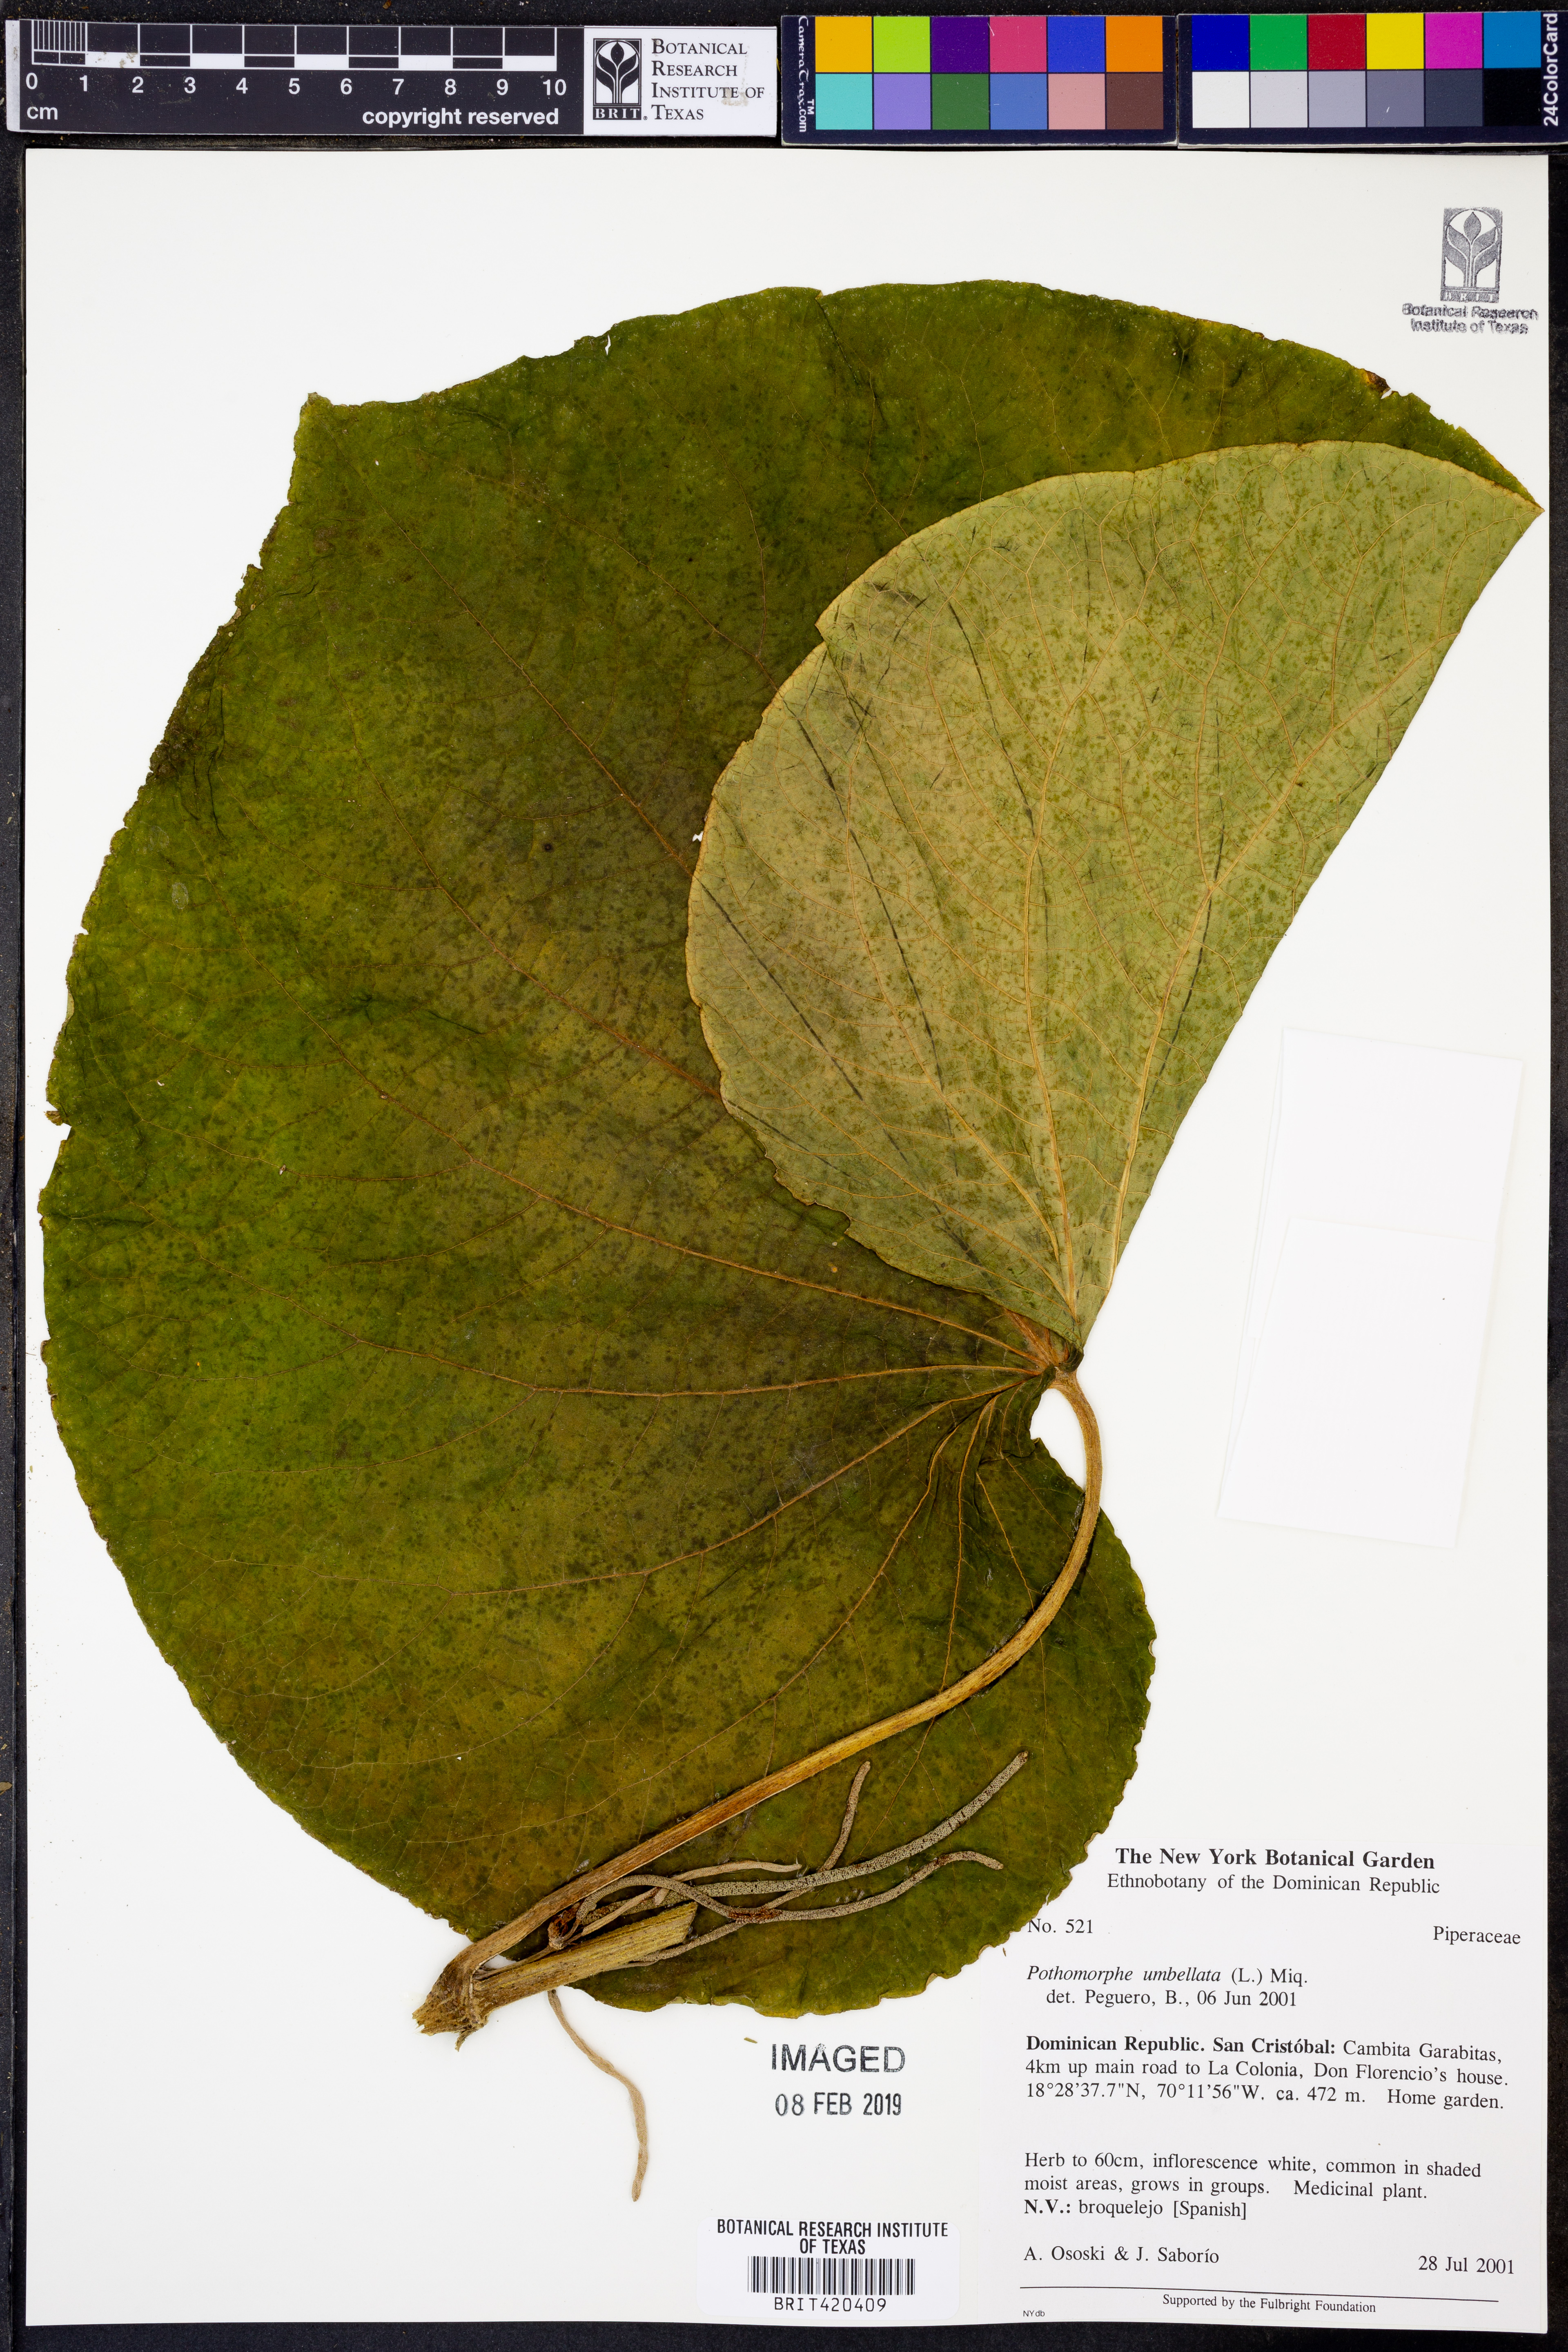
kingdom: Plantae
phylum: Tracheophyta
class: Magnoliopsida
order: Piperales
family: Piperaceae
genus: Piper
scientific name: Piper umbellatum
